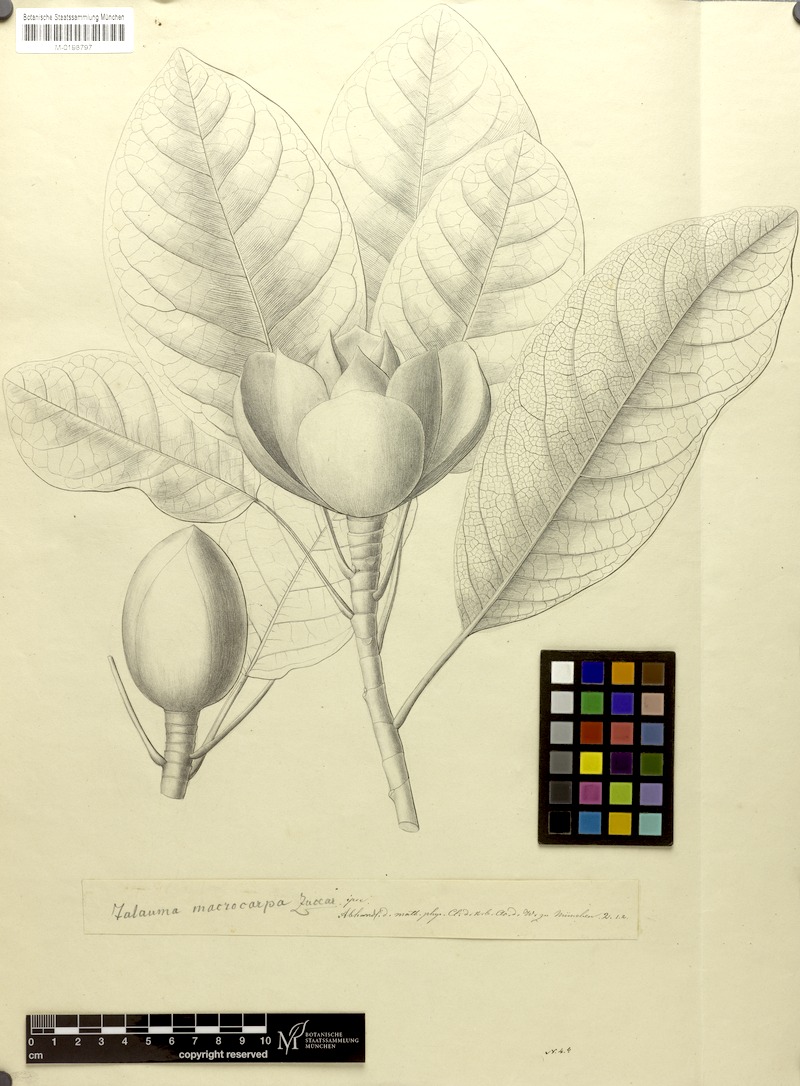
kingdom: Plantae
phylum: Tracheophyta
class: Magnoliopsida
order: Magnoliales
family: Magnoliaceae
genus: Magnolia
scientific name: Magnolia mexicana
